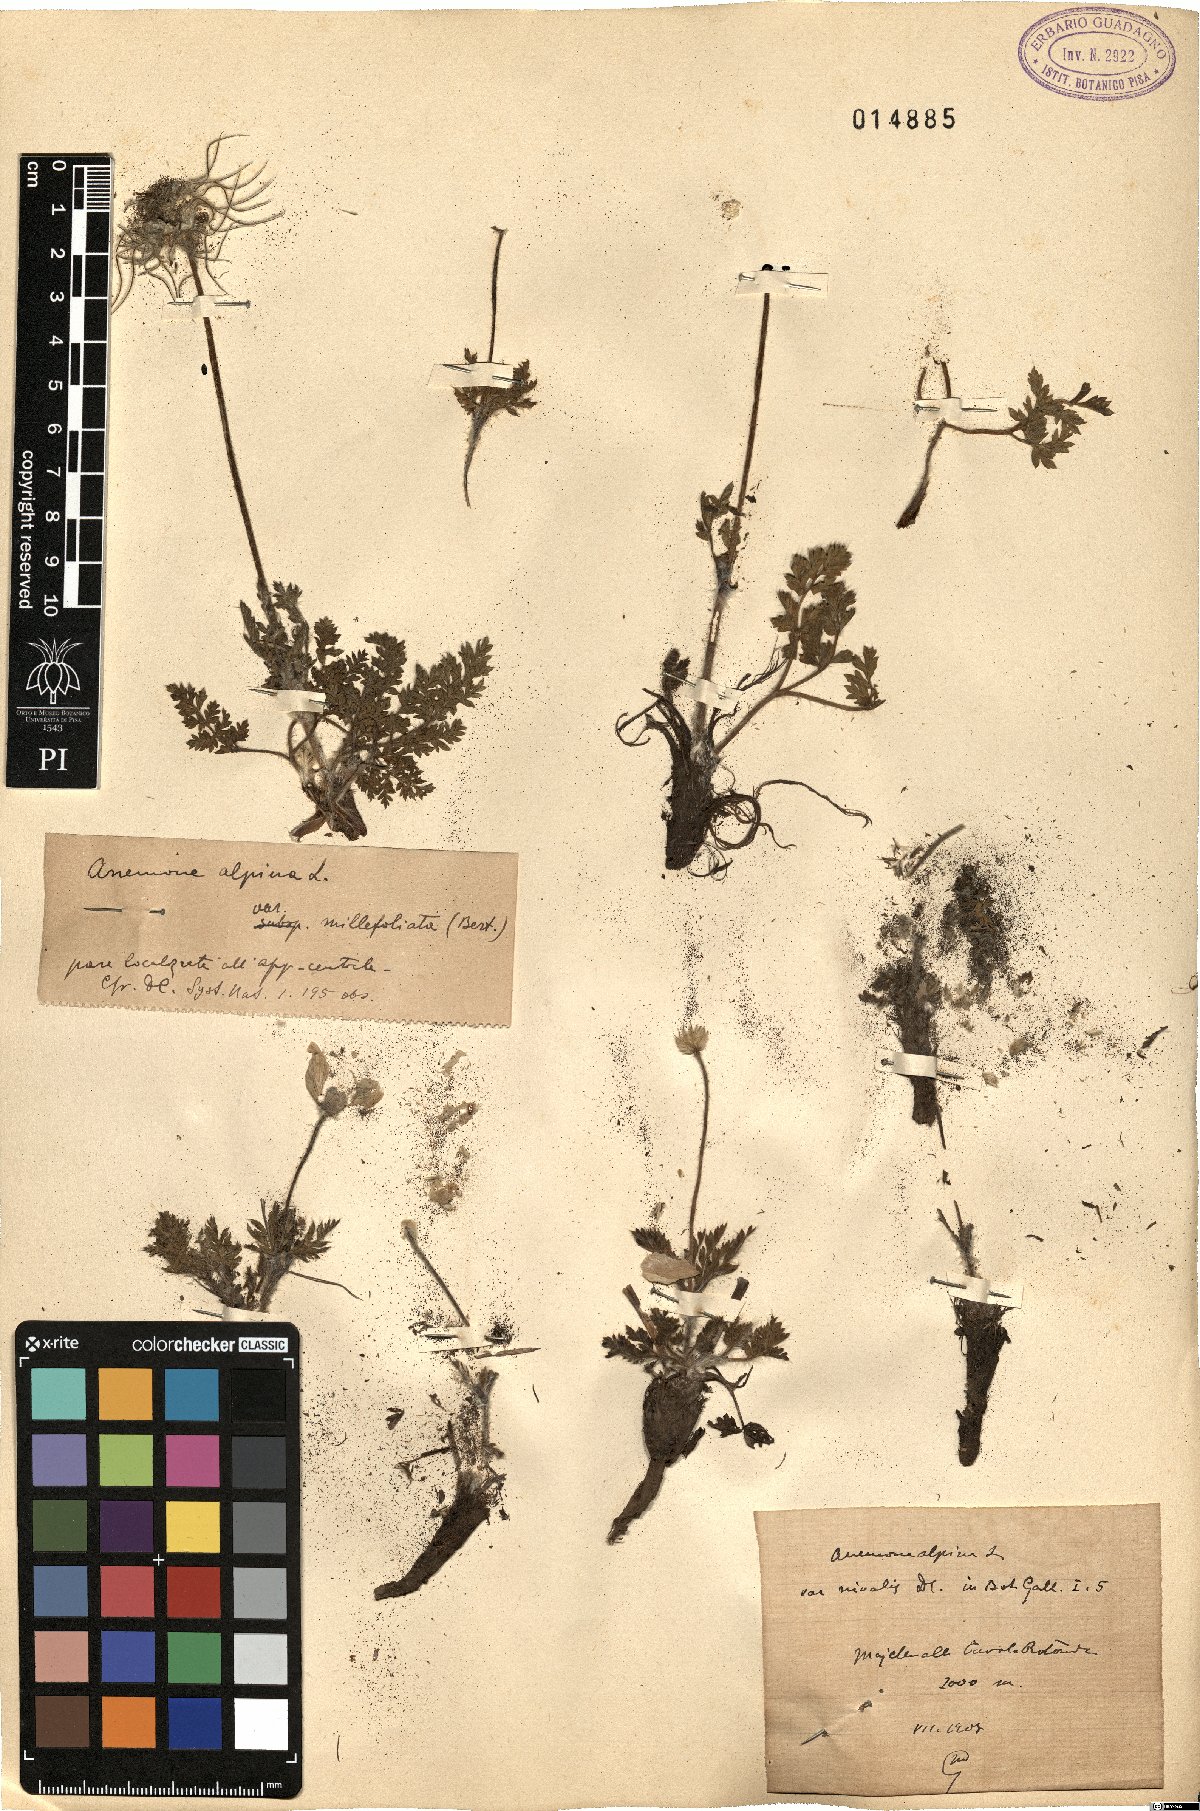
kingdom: Plantae
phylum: Tracheophyta
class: Magnoliopsida
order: Ranunculales
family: Ranunculaceae
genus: Pulsatilla
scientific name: Pulsatilla alpina
